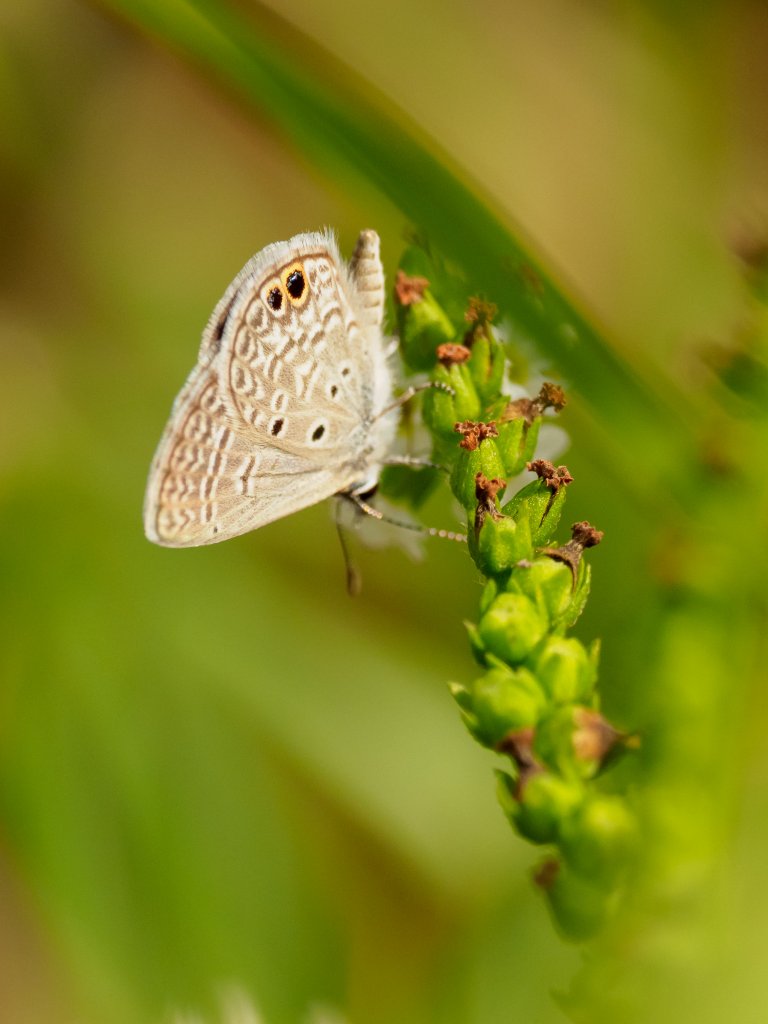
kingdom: Animalia
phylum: Arthropoda
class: Insecta
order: Lepidoptera
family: Lycaenidae
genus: Hemiargus
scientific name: Hemiargus ceraunus
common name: Ceraunus Blue
